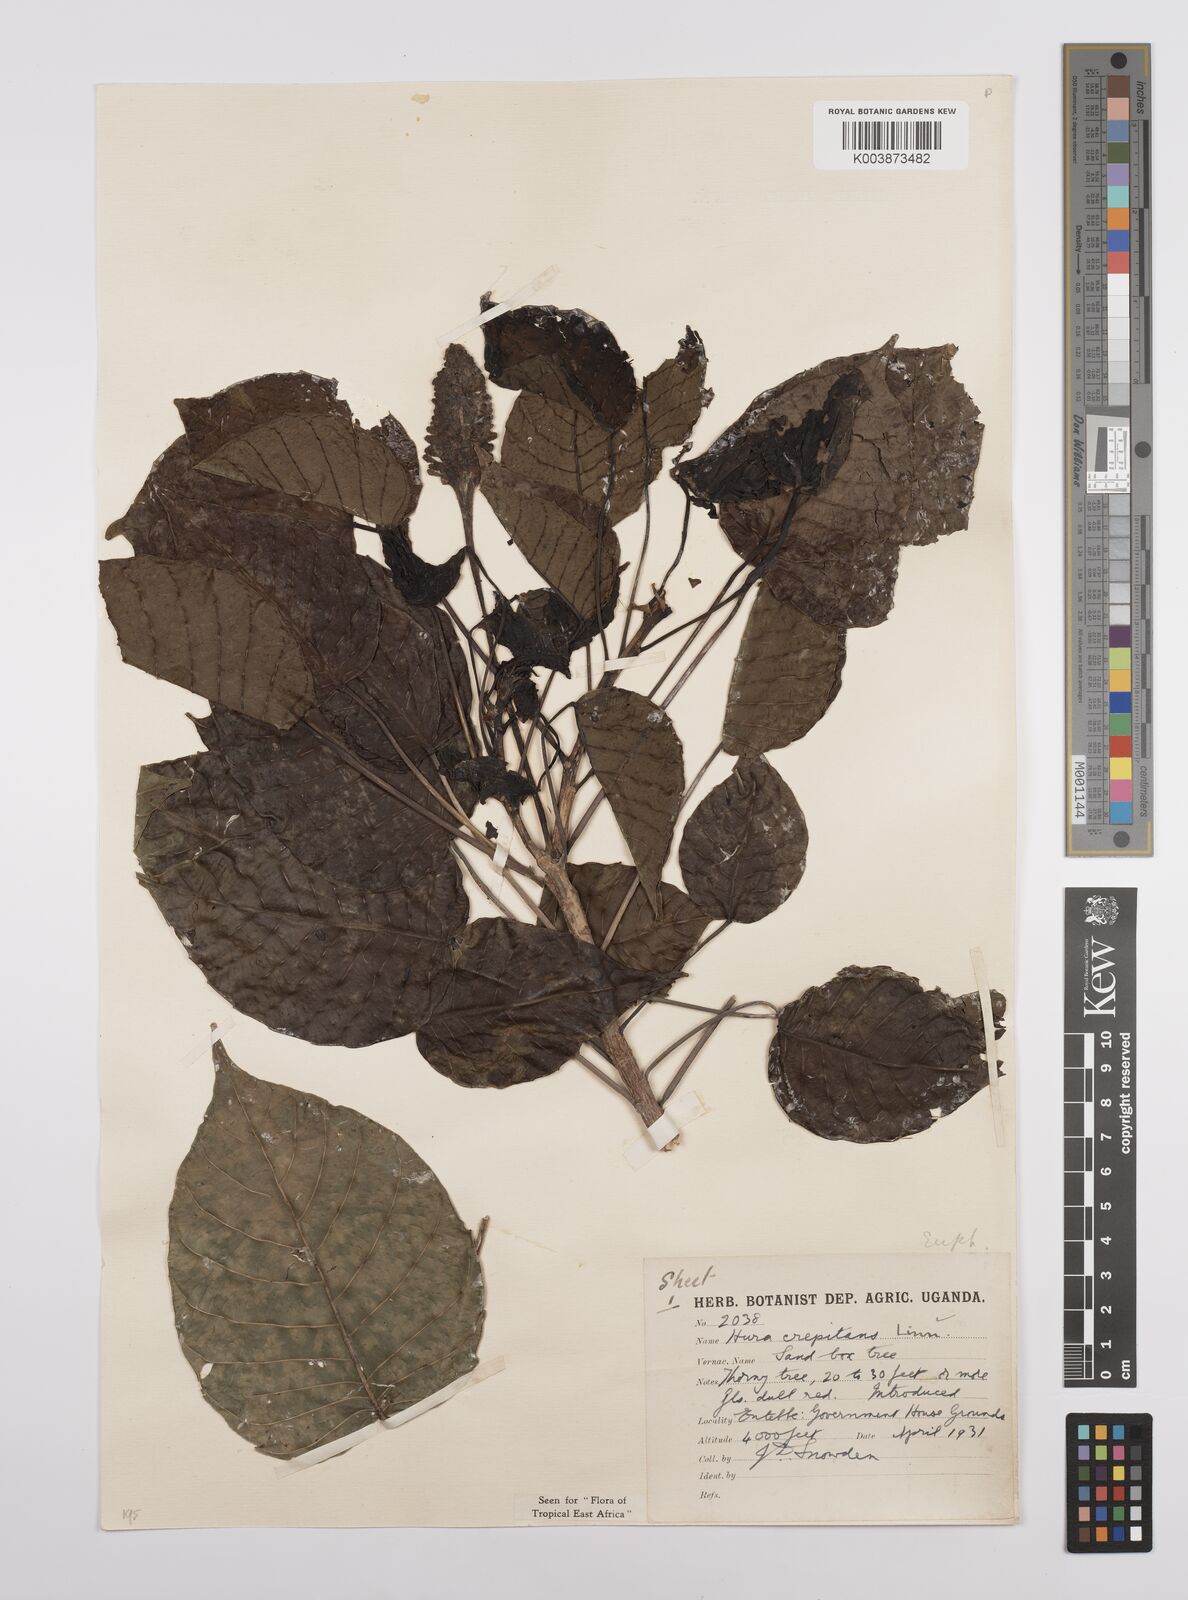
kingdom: Plantae
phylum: Tracheophyta
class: Magnoliopsida
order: Malpighiales
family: Euphorbiaceae
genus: Hura
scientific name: Hura crepitans
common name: Sandboxtree
